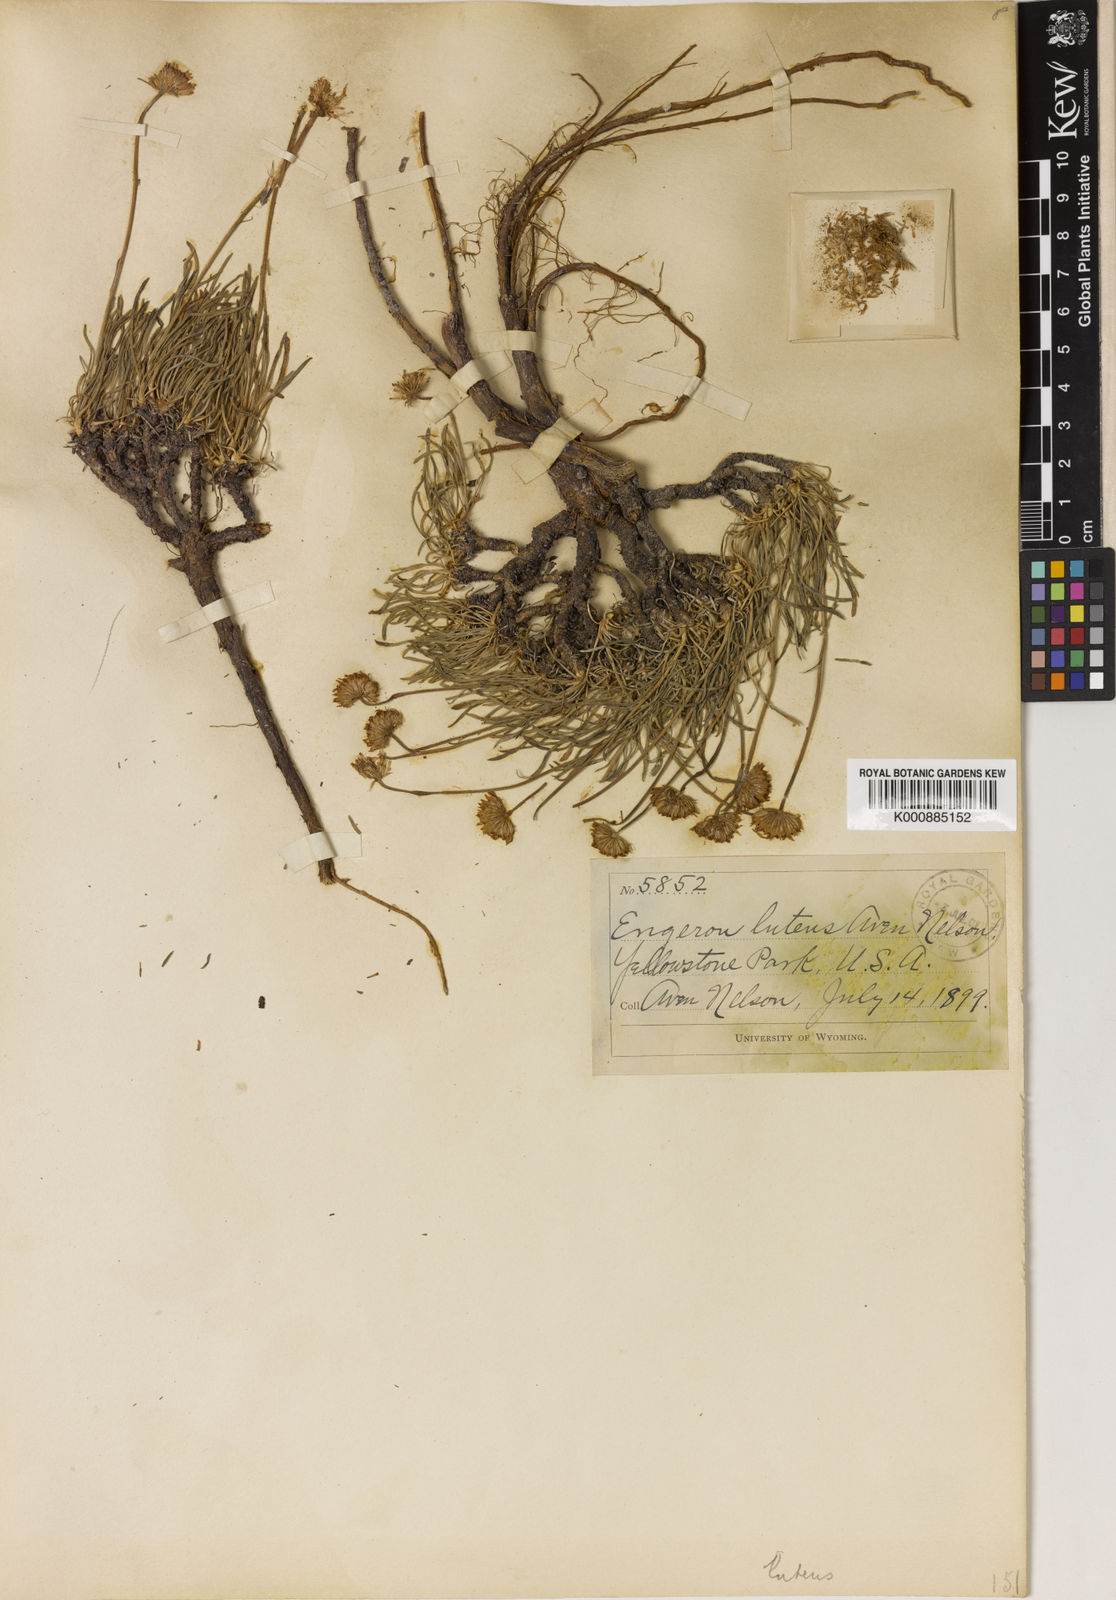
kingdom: Plantae
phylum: Tracheophyta
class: Magnoliopsida
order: Asterales
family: Asteraceae
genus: Erigeron
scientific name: Erigeron
